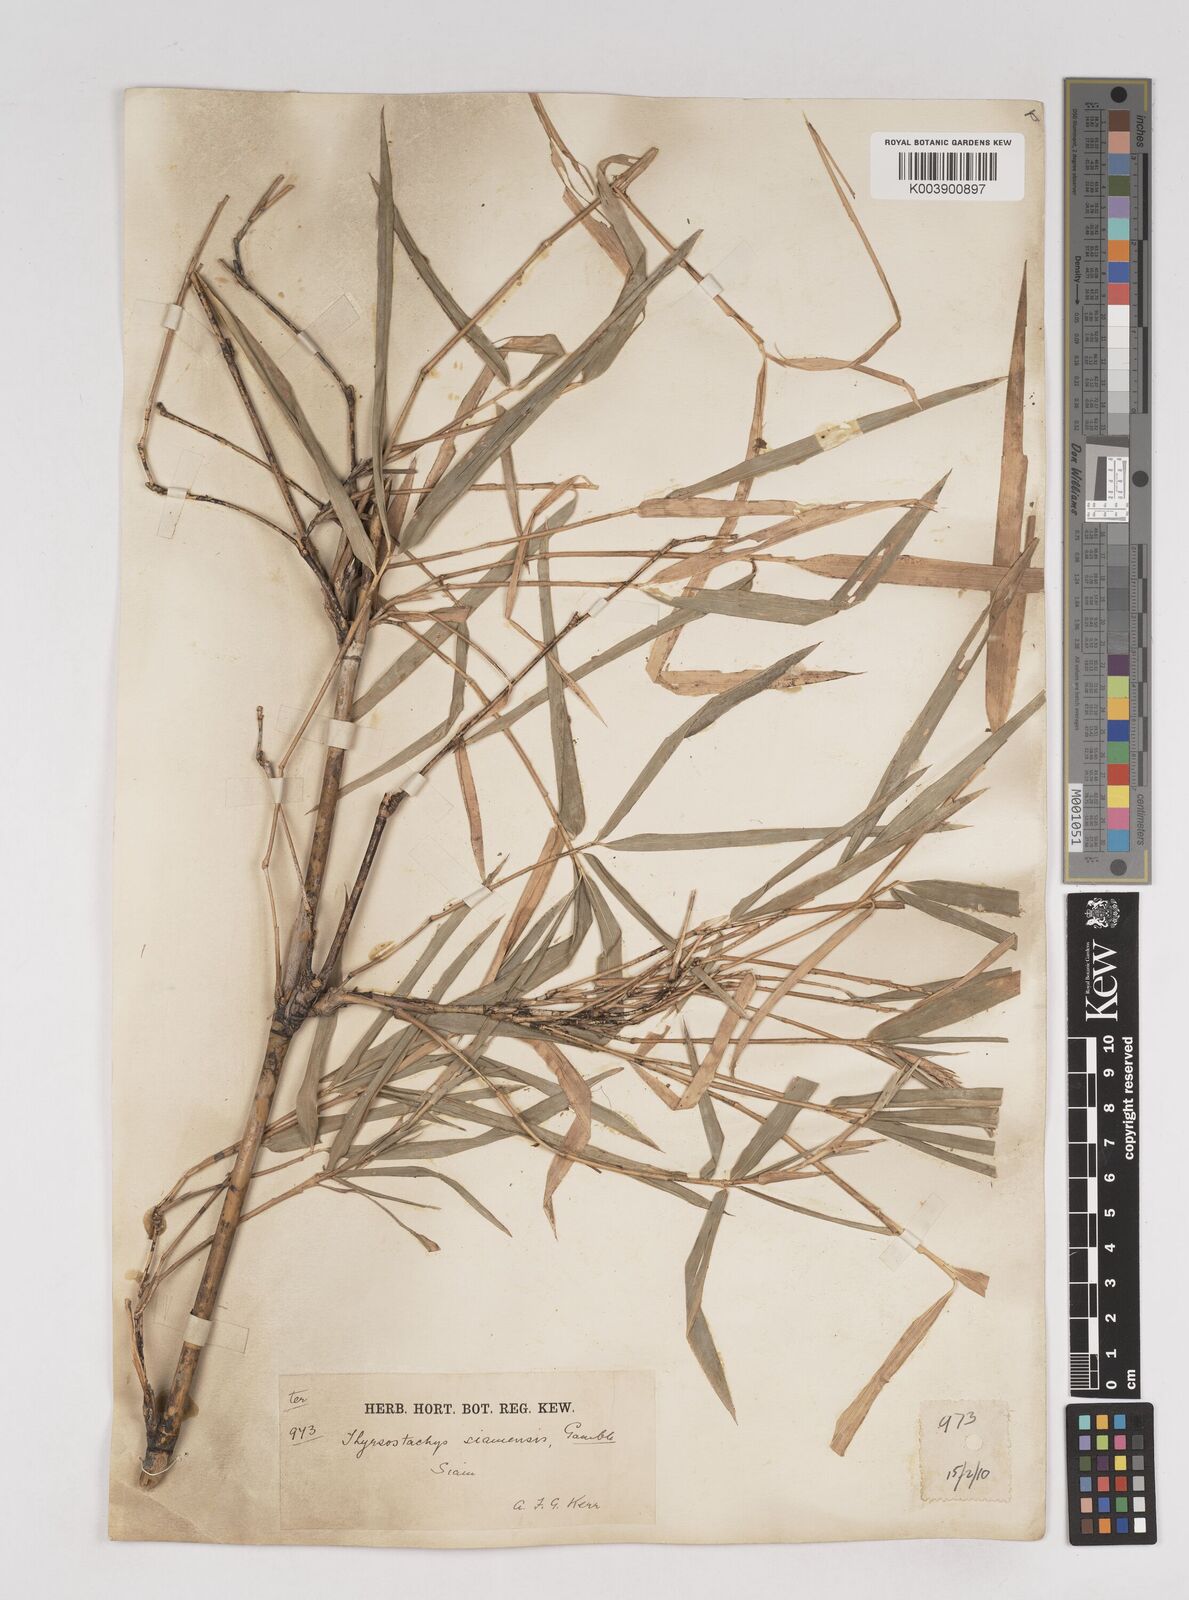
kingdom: Plantae
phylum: Tracheophyta
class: Liliopsida
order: Poales
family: Poaceae
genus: Thyrsostachys
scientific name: Thyrsostachys siamensis
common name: Thailand bamboo
